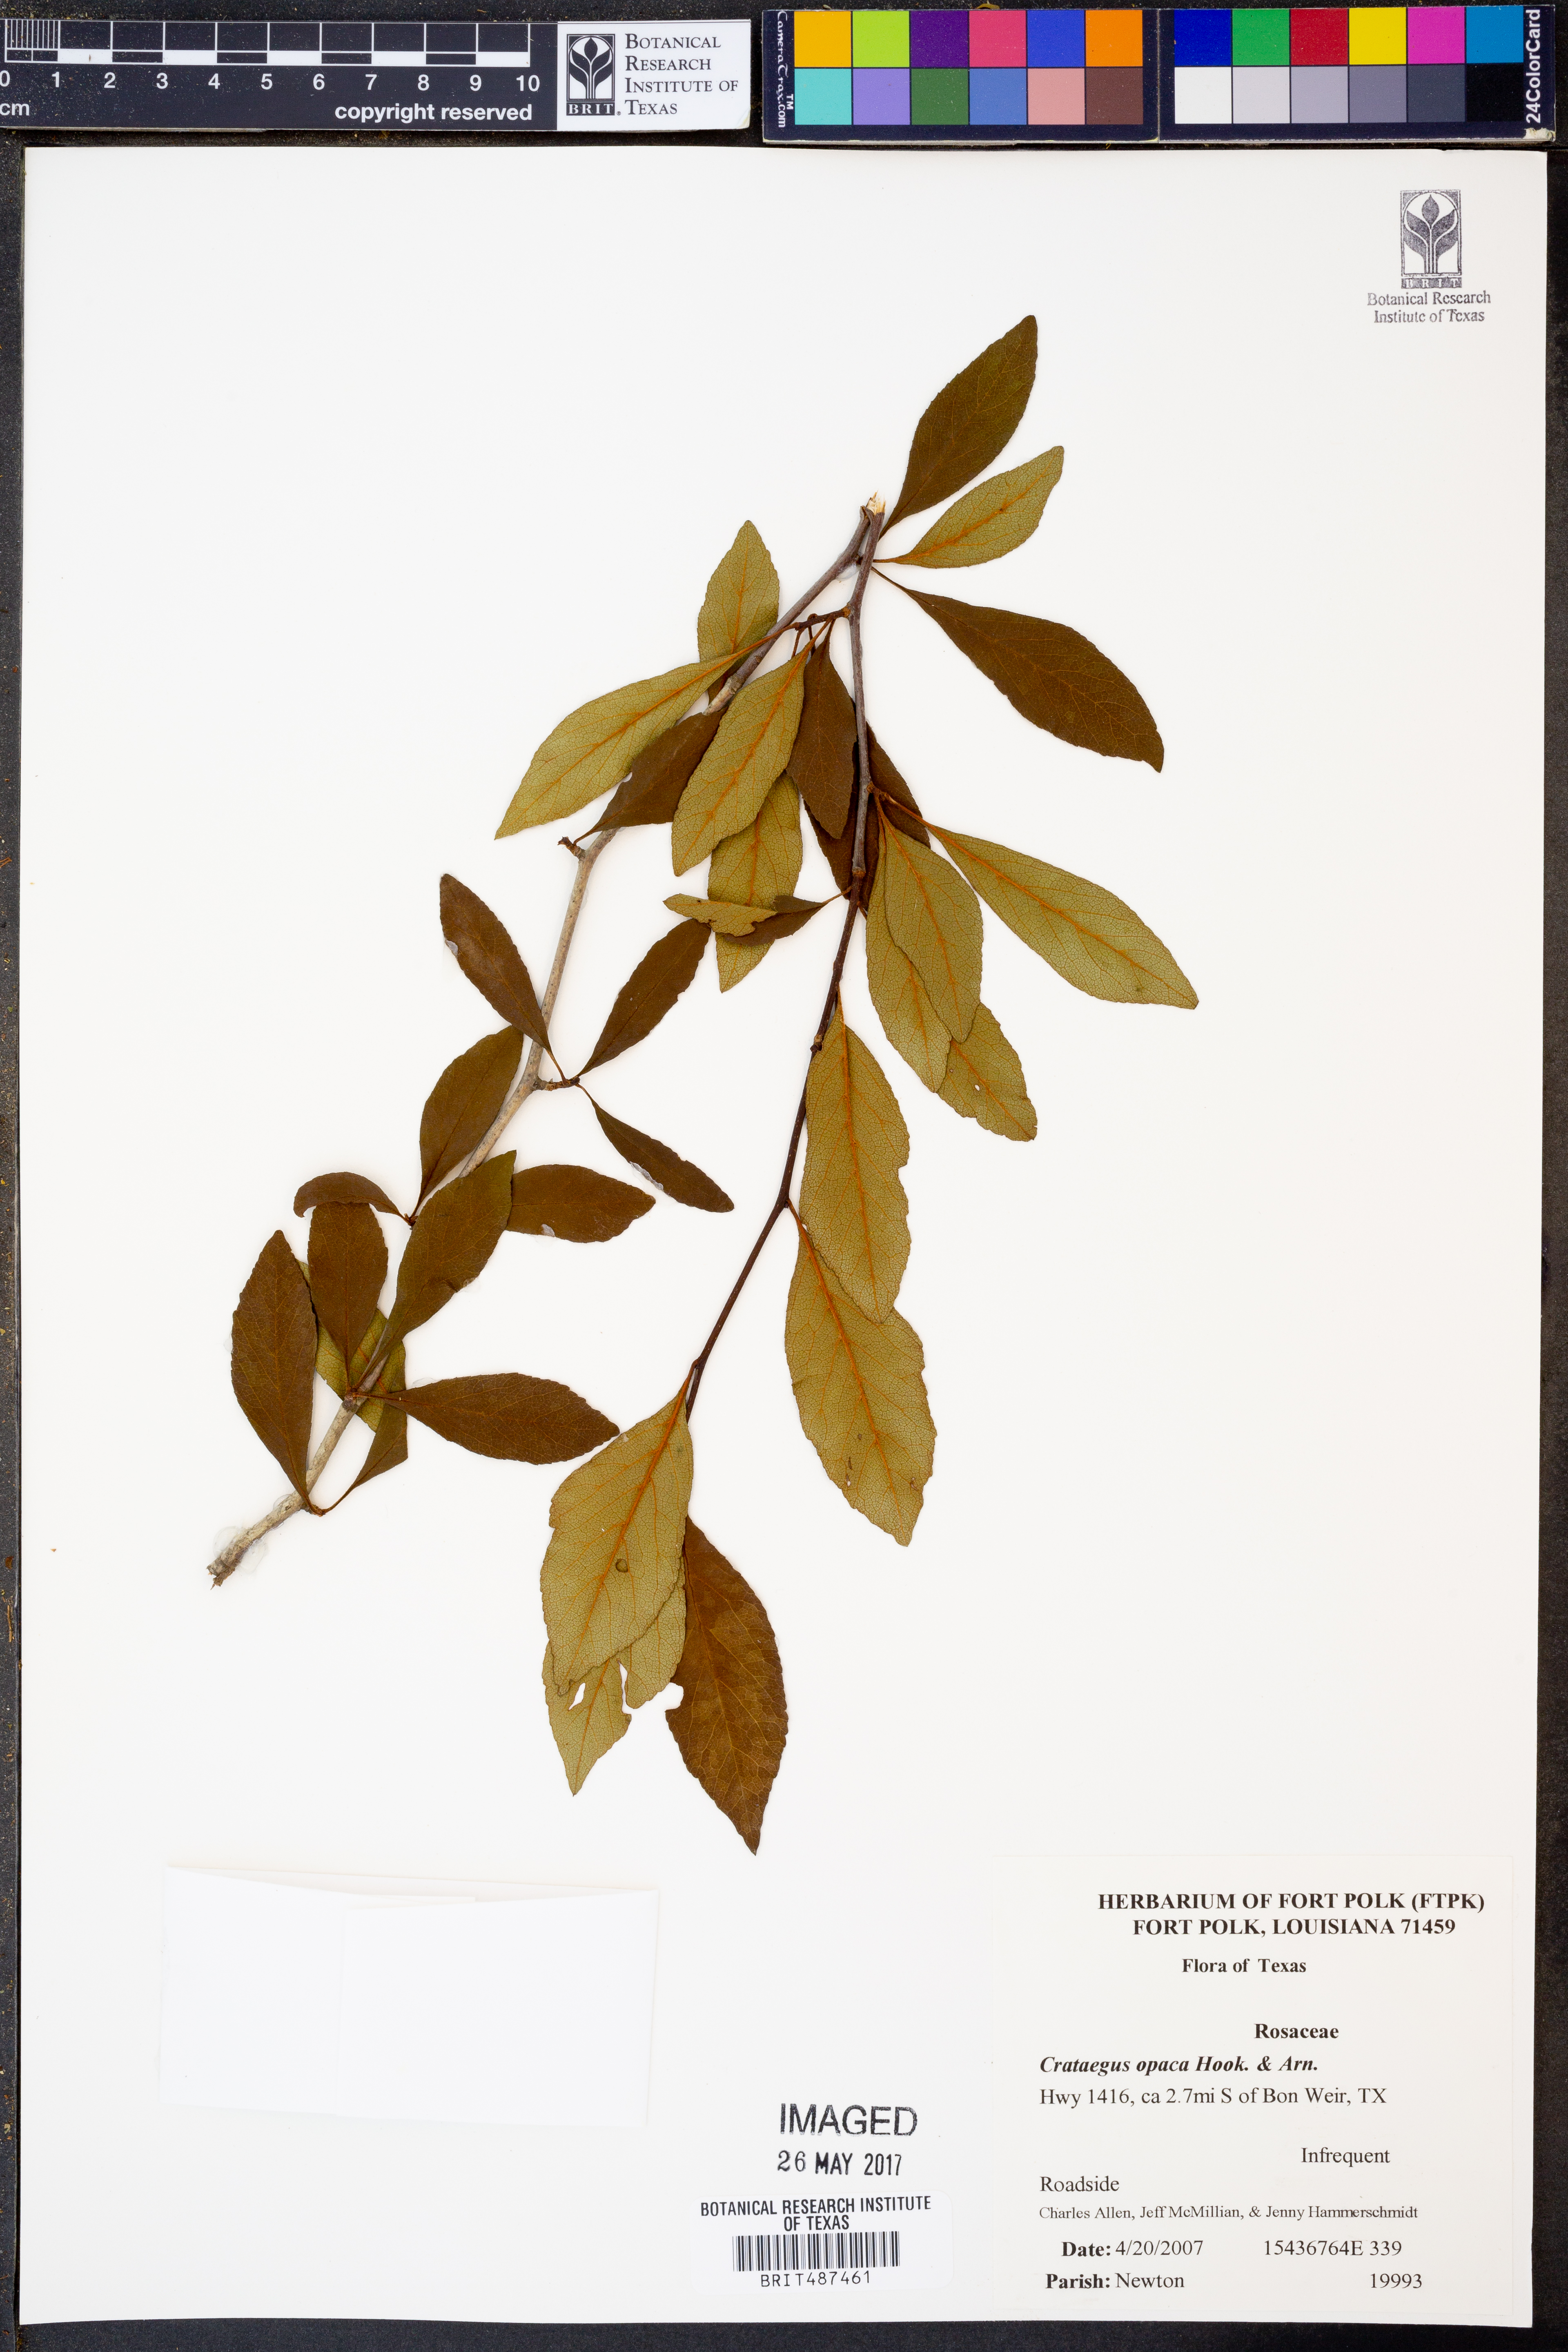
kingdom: Plantae
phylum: Tracheophyta
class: Magnoliopsida
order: Rosales
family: Rosaceae
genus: Crataegus
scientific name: Crataegus opaca
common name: Apple haw
